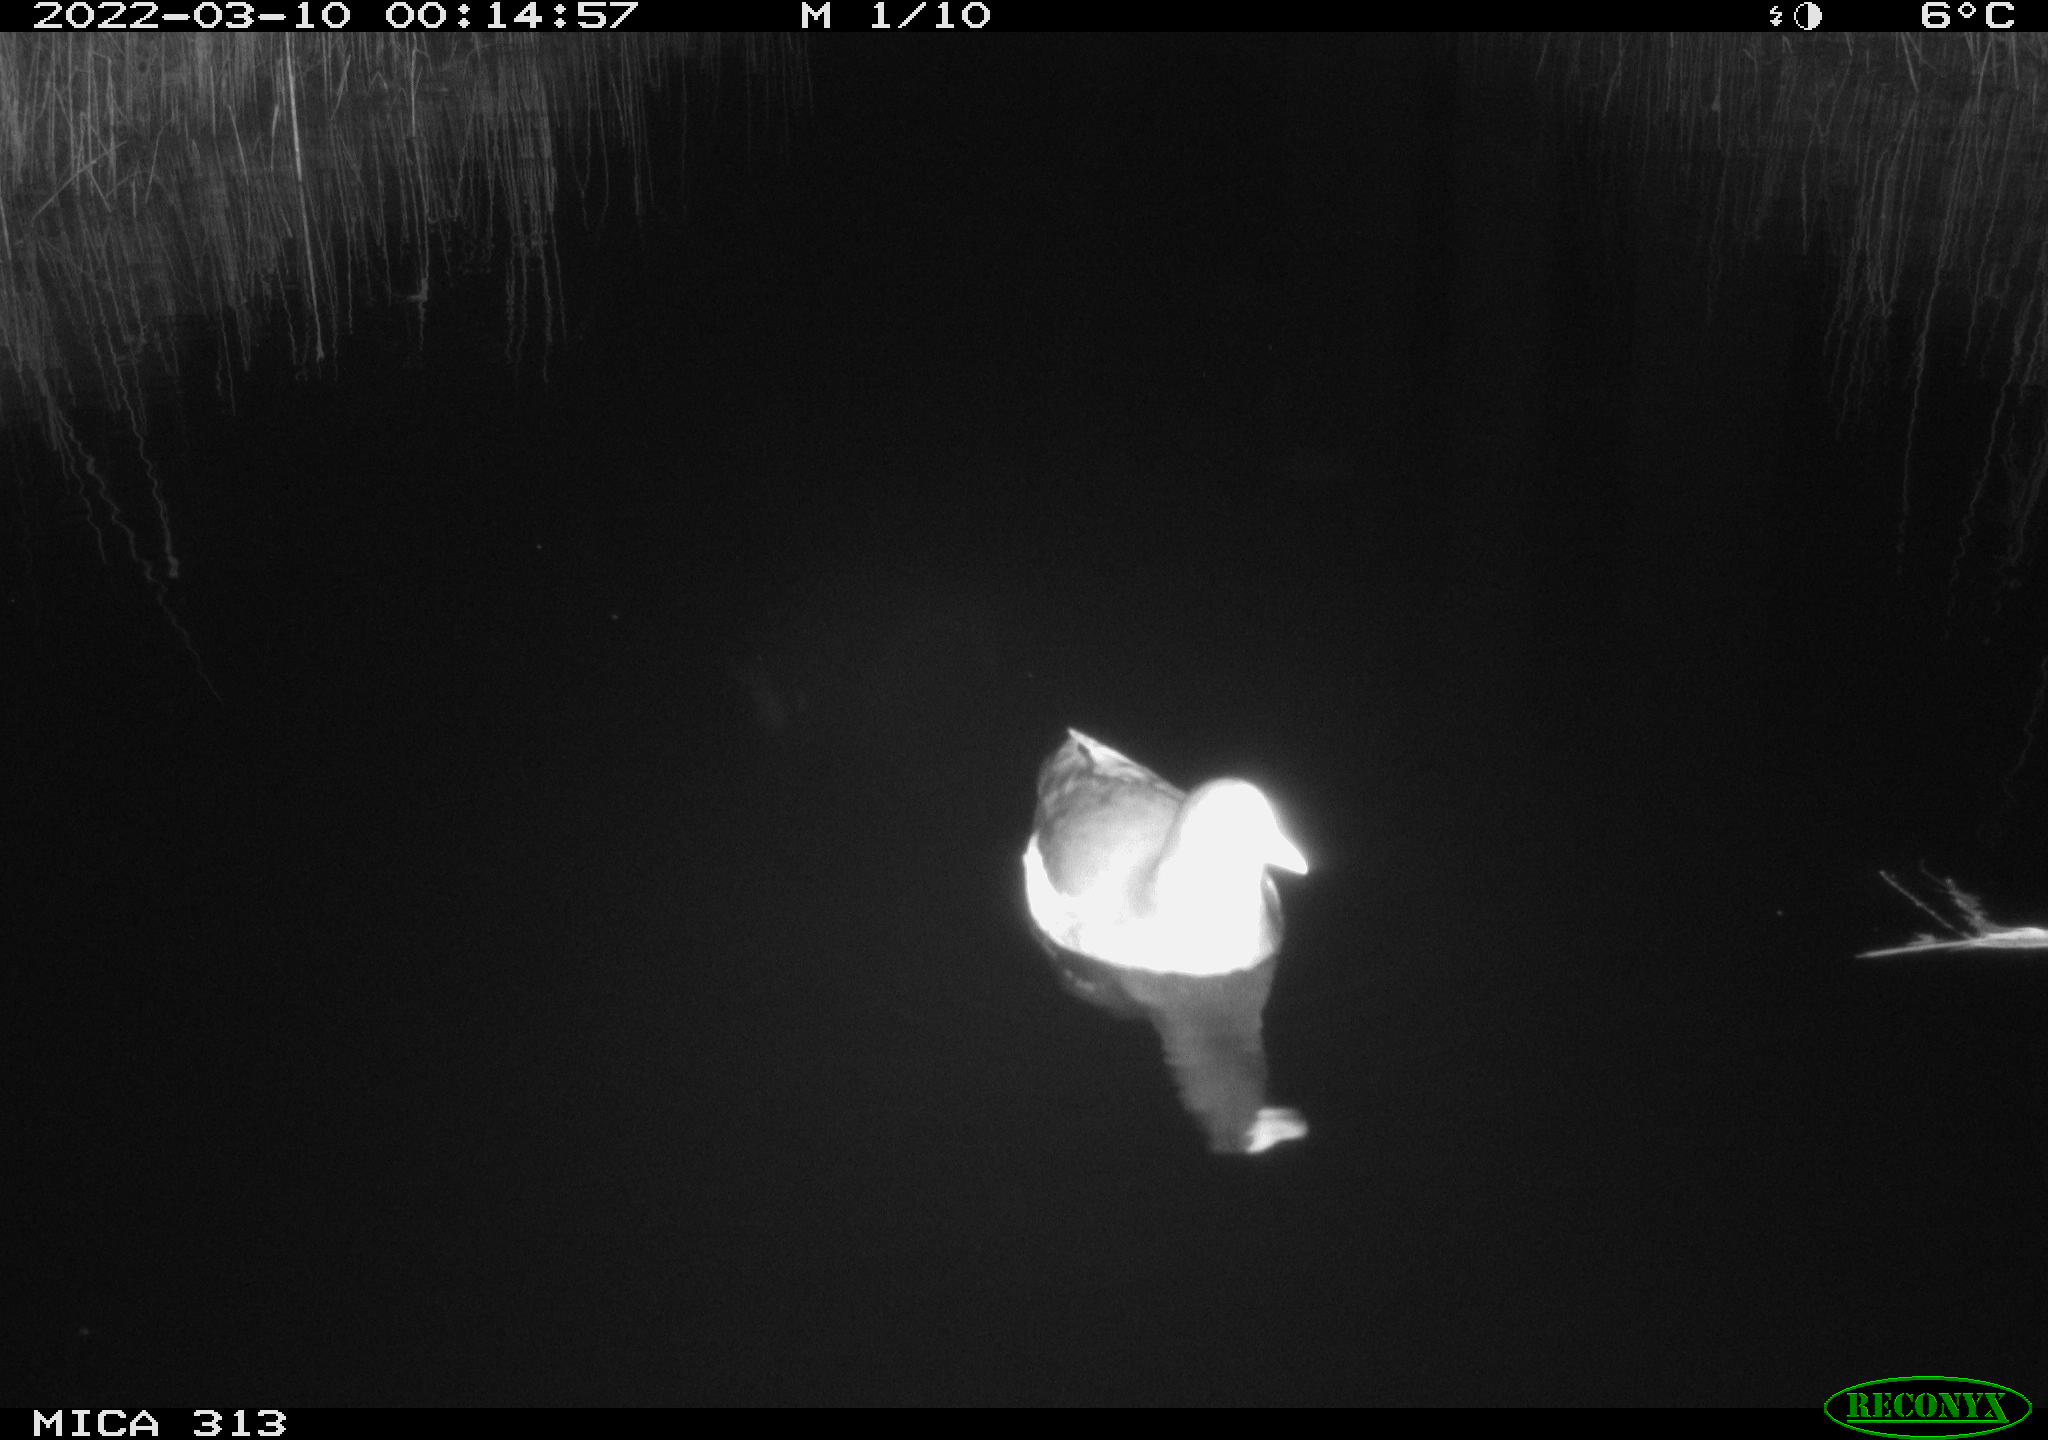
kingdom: Animalia
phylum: Chordata
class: Aves
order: Gruiformes
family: Rallidae
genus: Gallinula
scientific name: Gallinula chloropus
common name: Common moorhen
